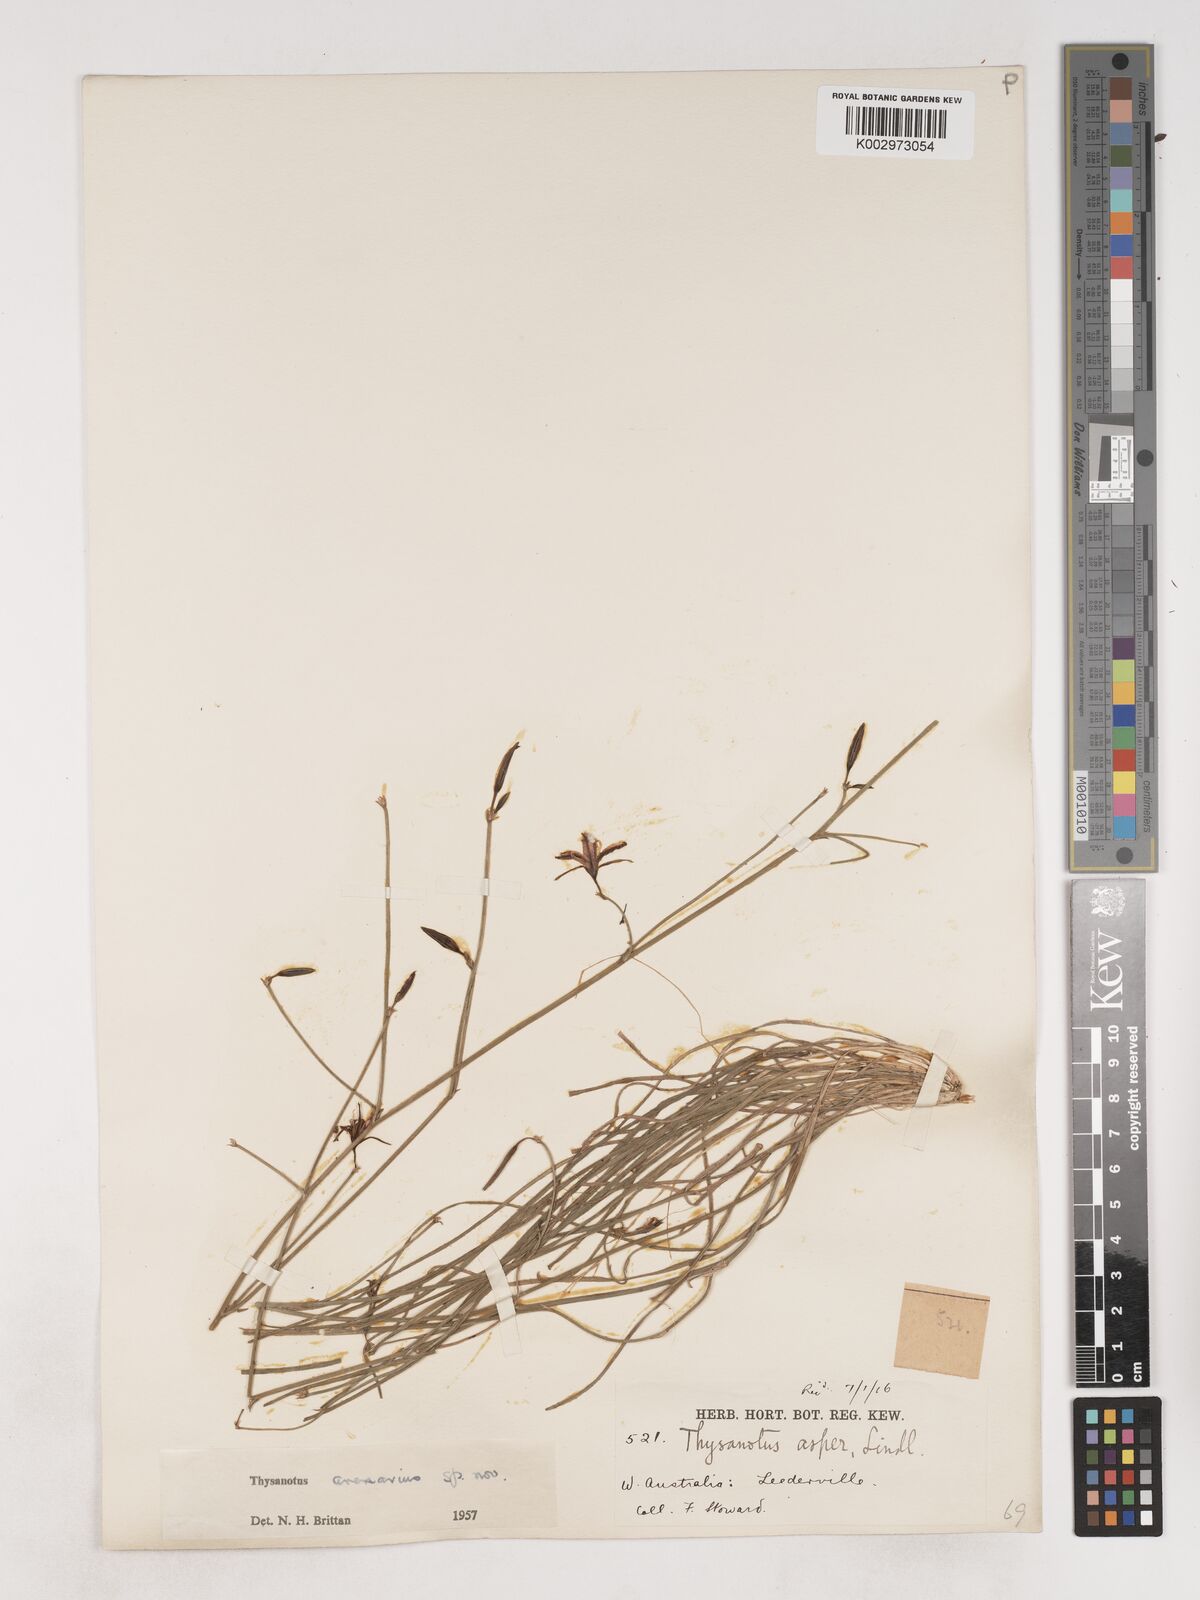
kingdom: Plantae
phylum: Tracheophyta
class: Liliopsida
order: Asparagales
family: Asparagaceae
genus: Thysanotus
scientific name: Thysanotus arenarius
